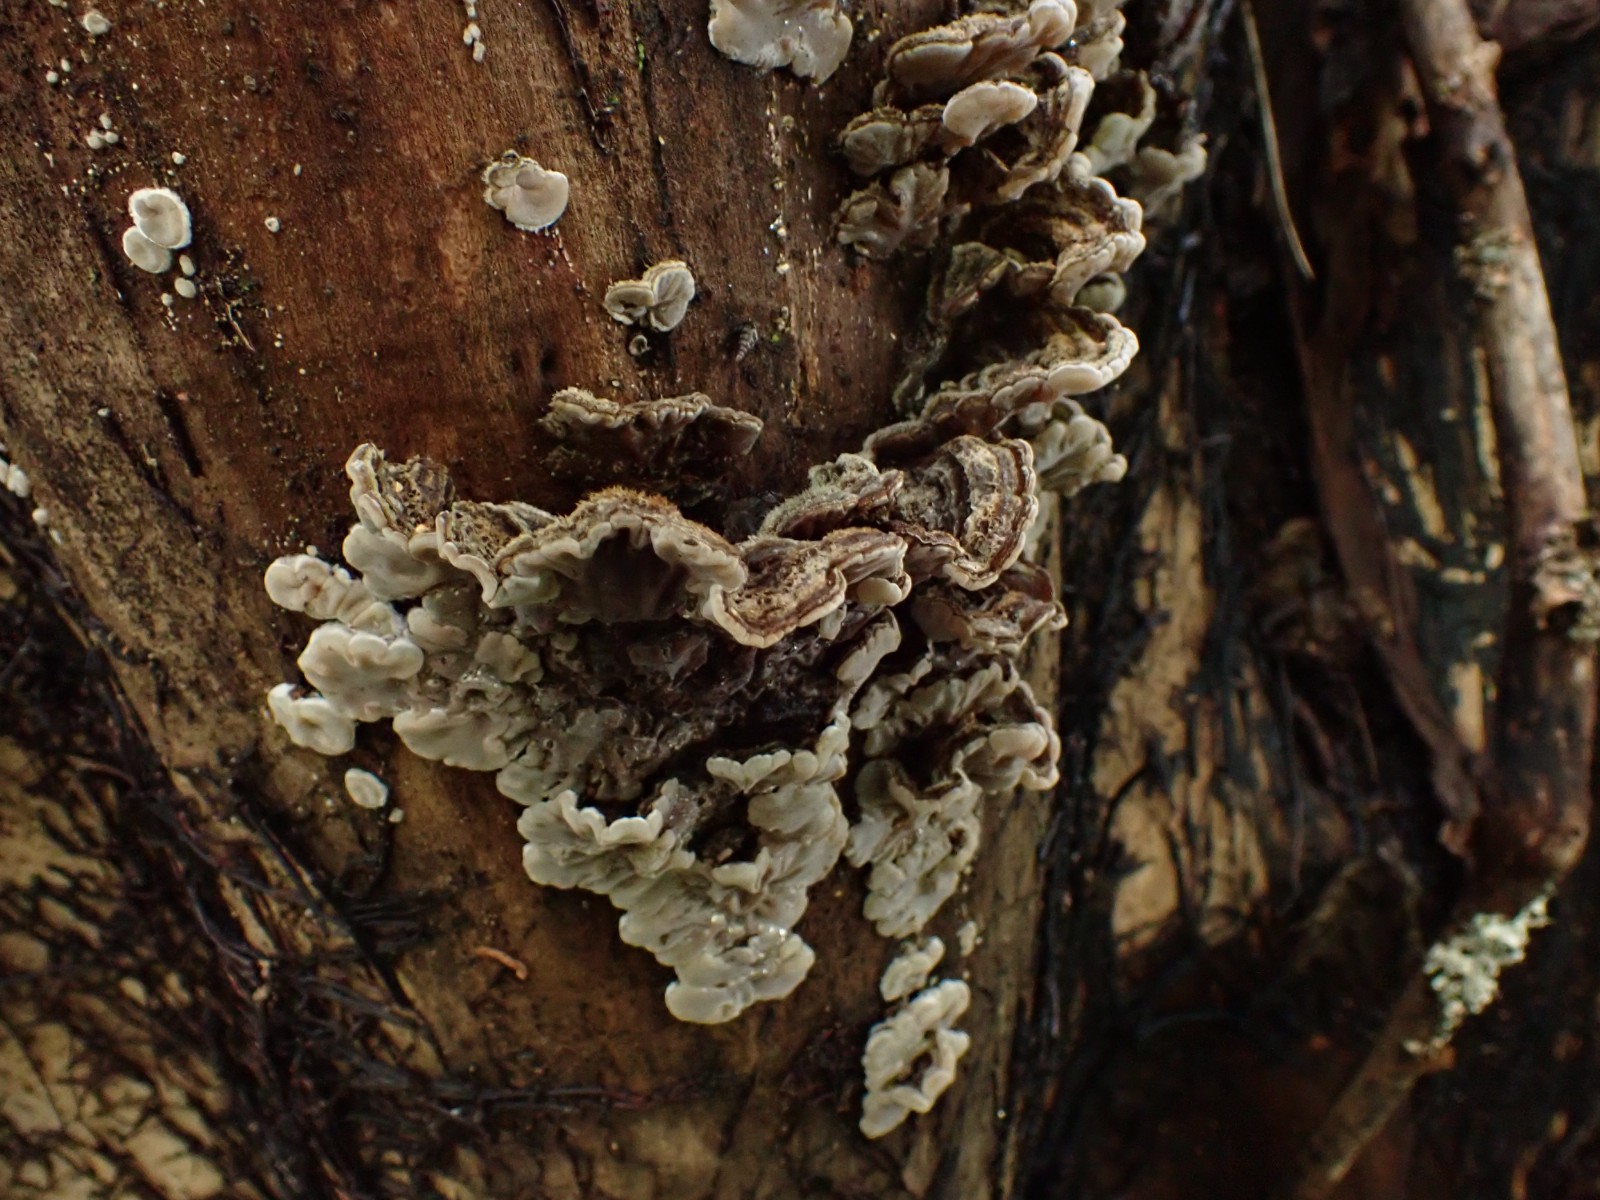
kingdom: Fungi
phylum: Basidiomycota
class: Agaricomycetes
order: Auriculariales
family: Auriculariaceae
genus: Auricularia
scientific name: Auricularia mesenterica
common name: håret judasøre
